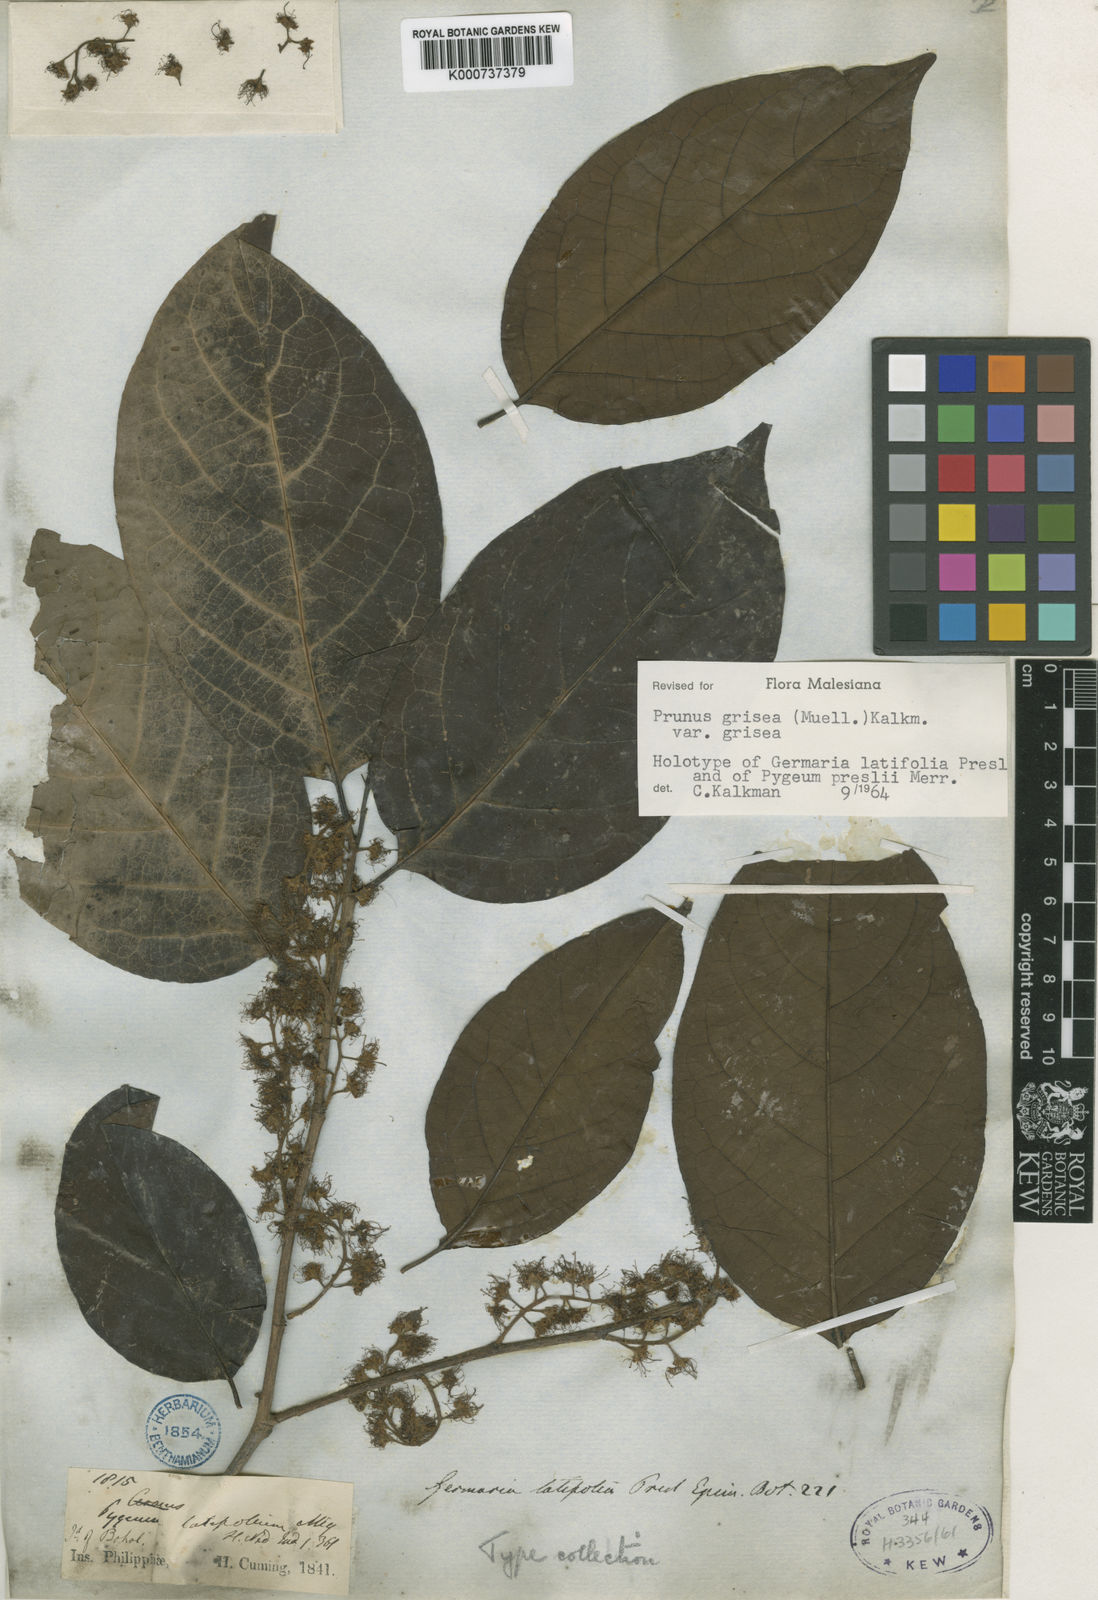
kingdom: Plantae
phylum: Tracheophyta
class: Magnoliopsida
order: Rosales
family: Rosaceae
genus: Prunus
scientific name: Prunus
